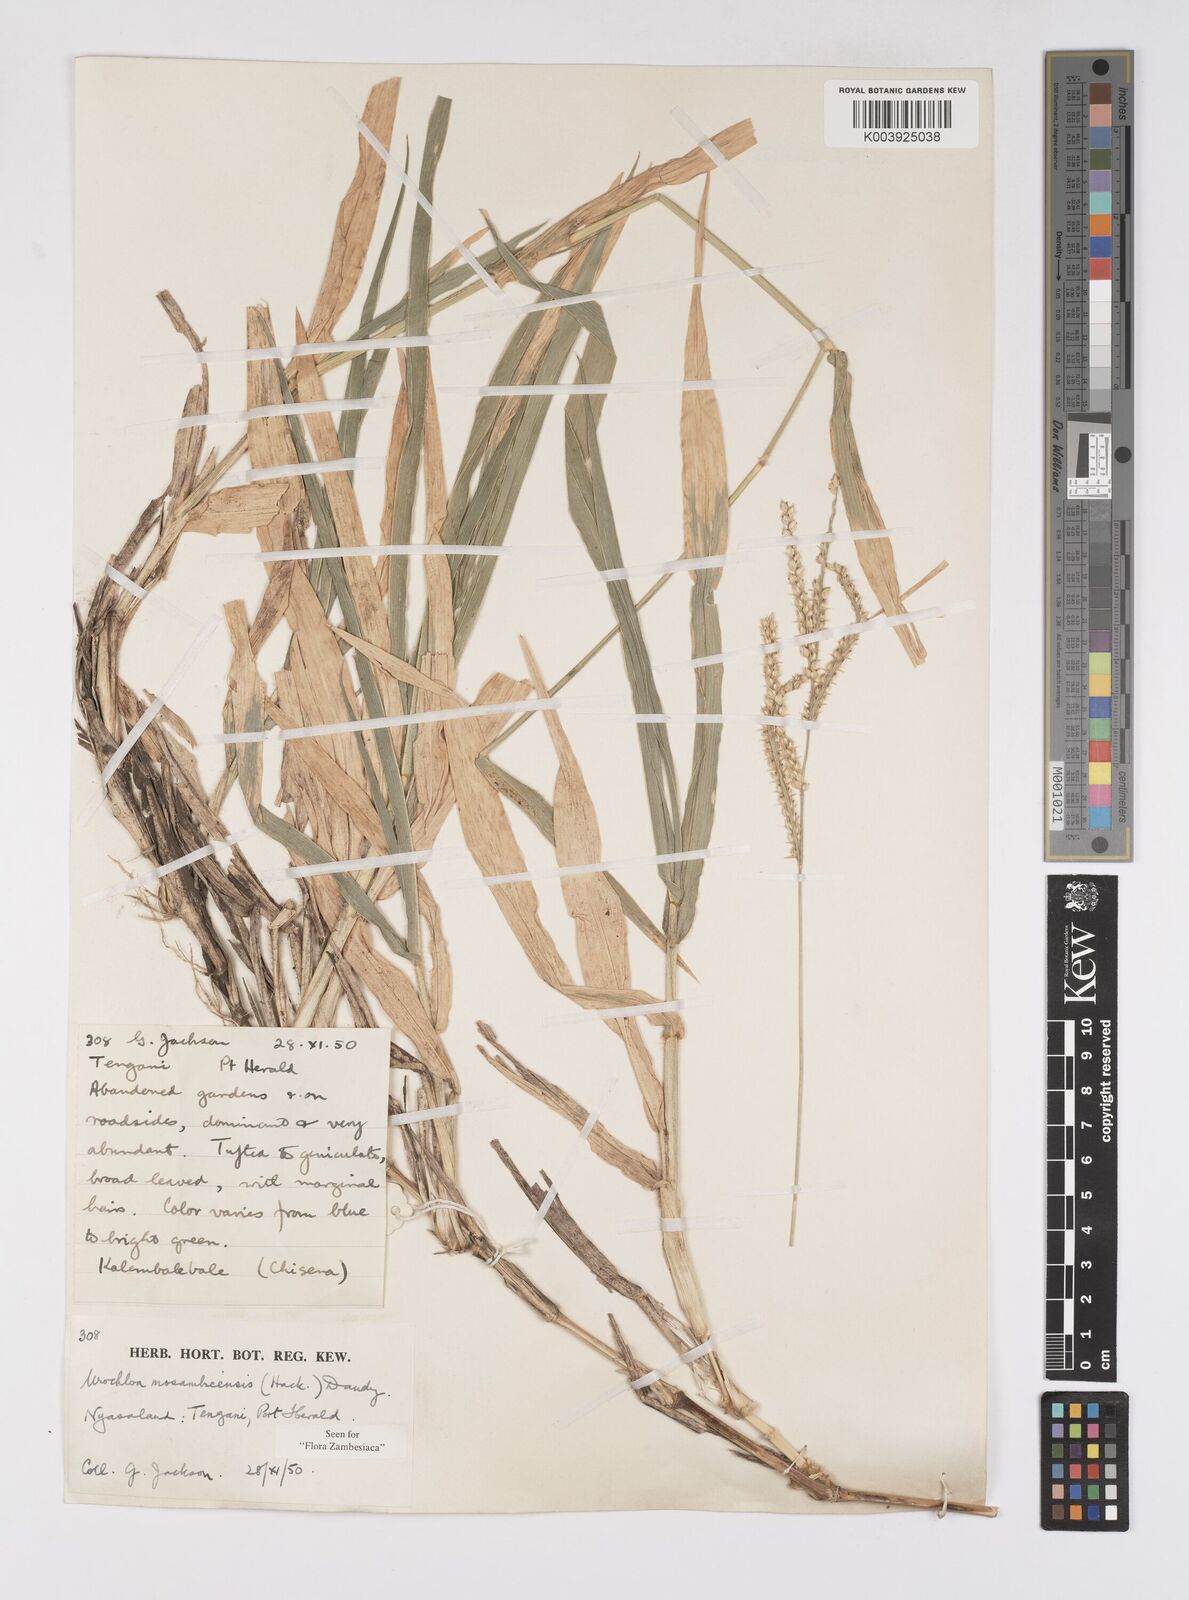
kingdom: Plantae
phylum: Tracheophyta
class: Liliopsida
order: Poales
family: Poaceae
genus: Urochloa
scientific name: Urochloa trichopus
